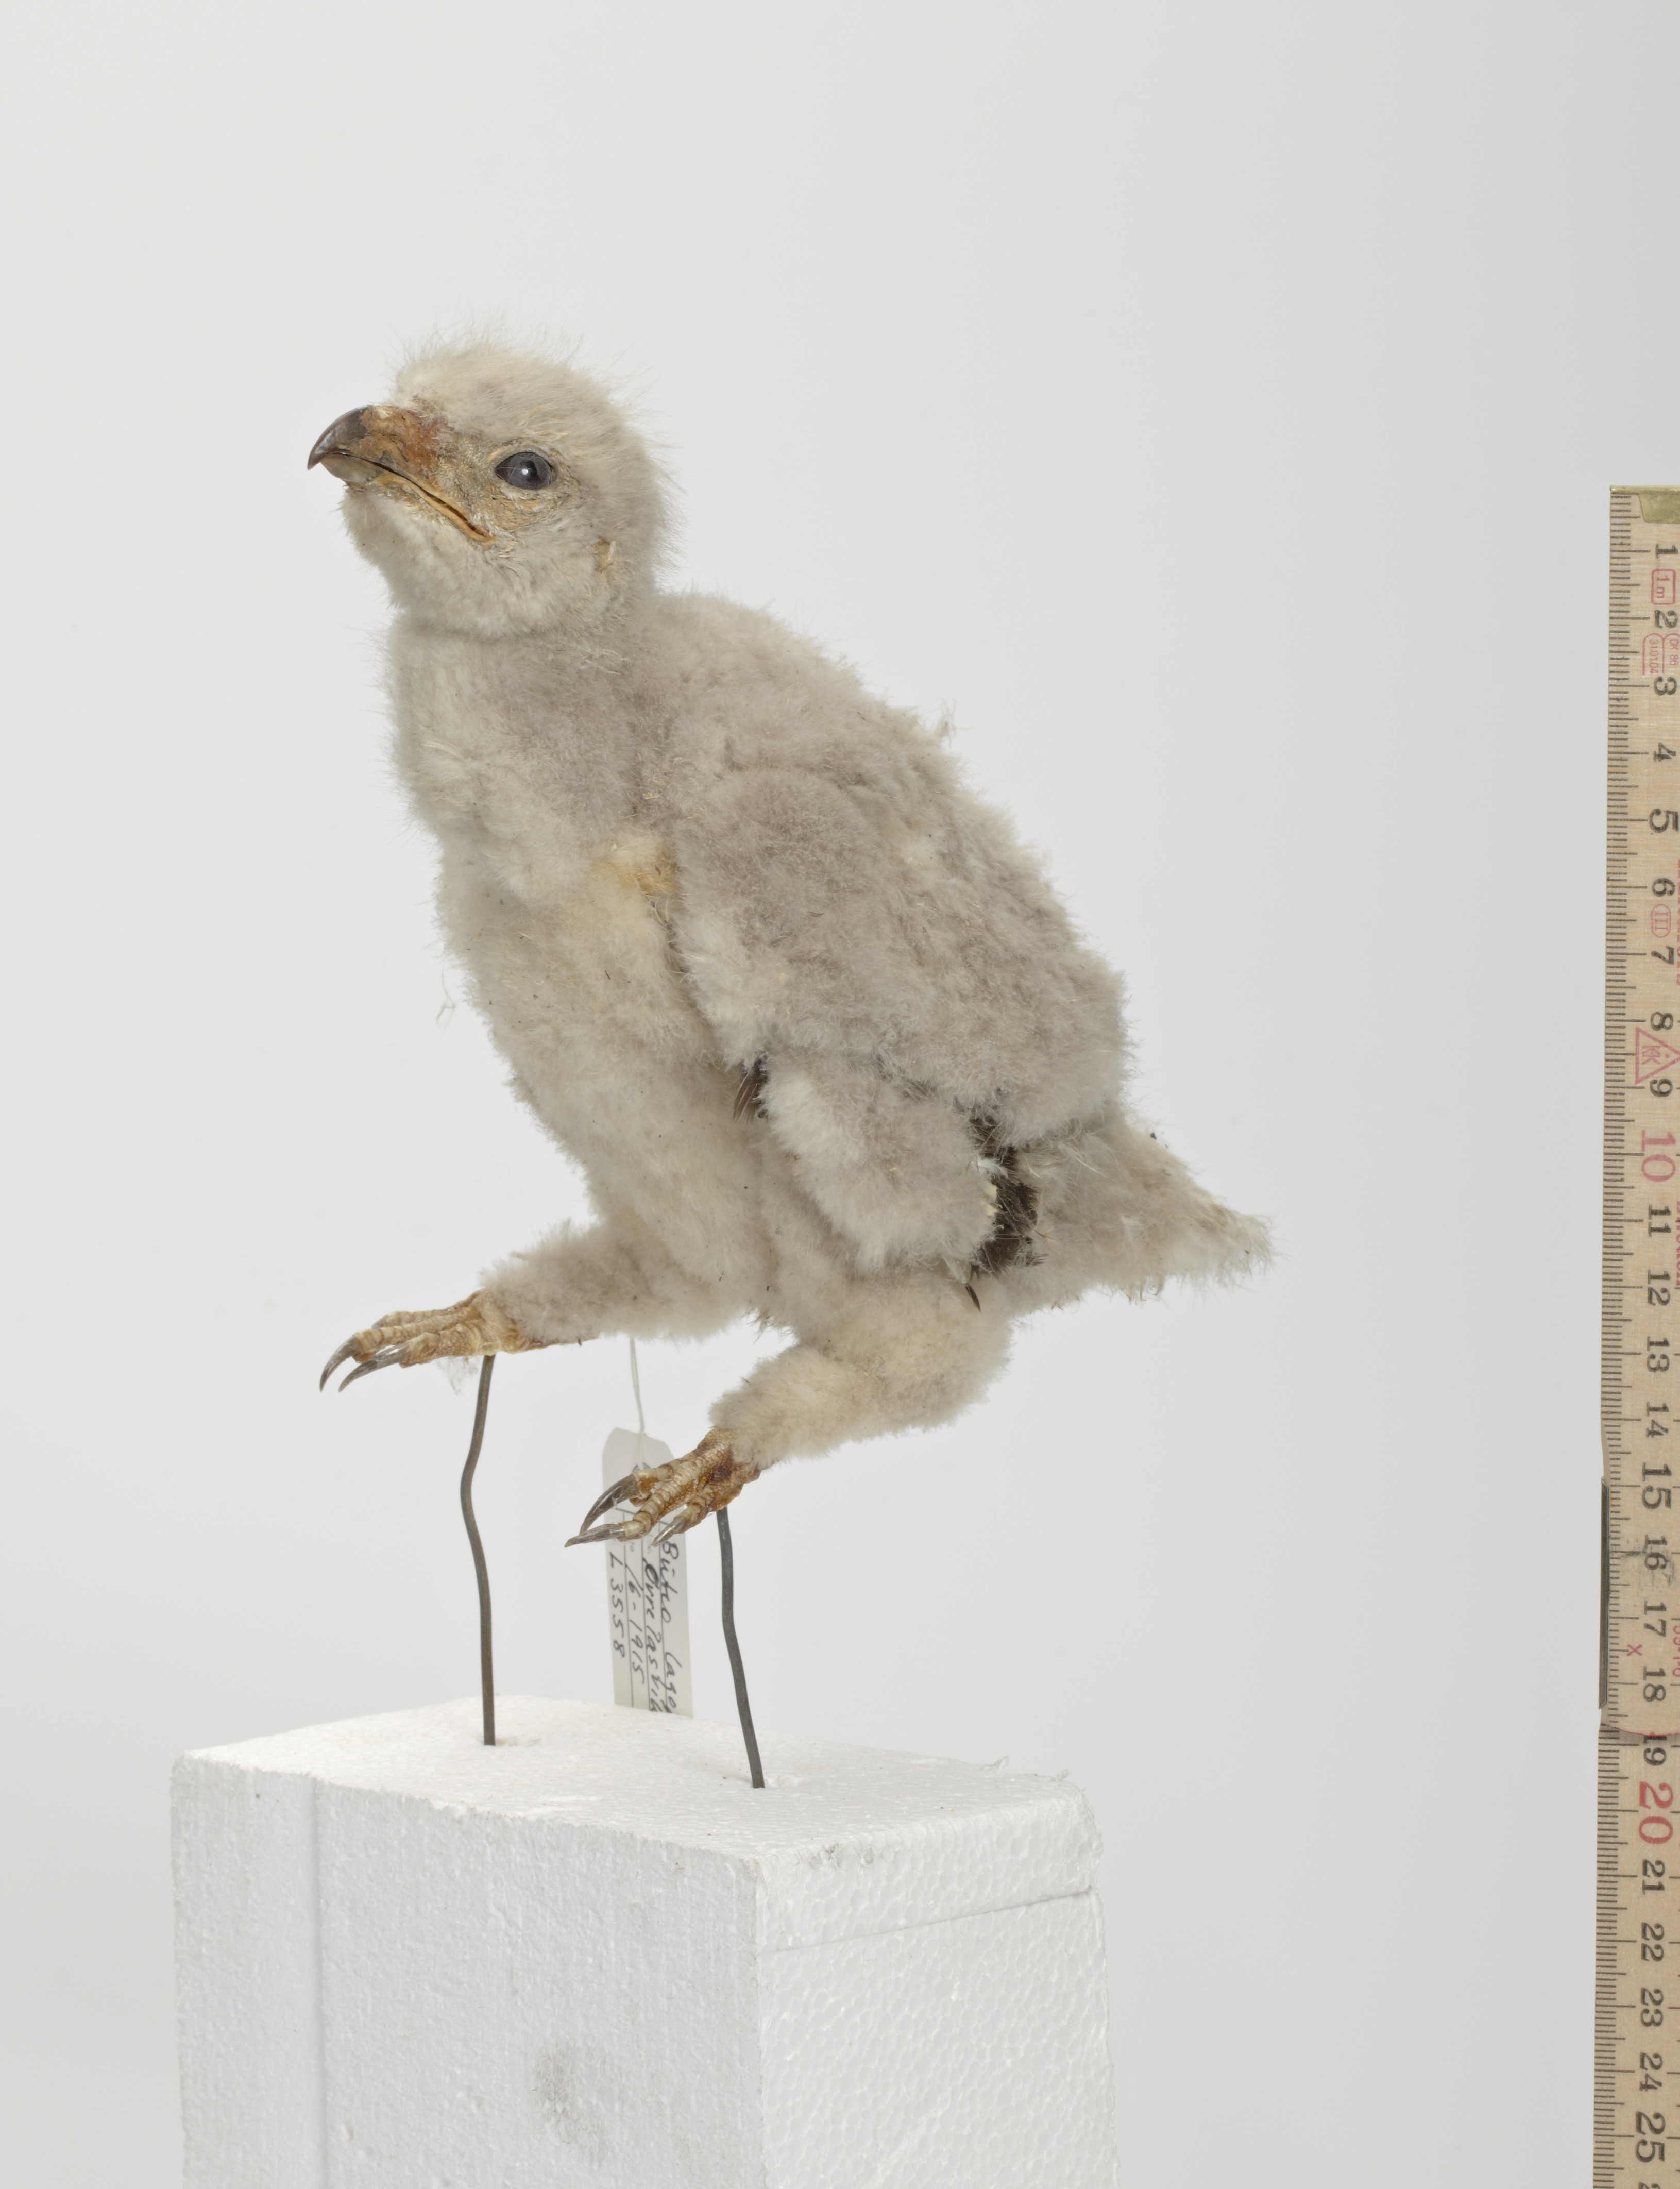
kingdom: Animalia
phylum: Chordata
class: Aves
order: Accipitriformes
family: Accipitridae
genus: Buteo
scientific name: Buteo lagopus
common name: Rough-legged buzzard
